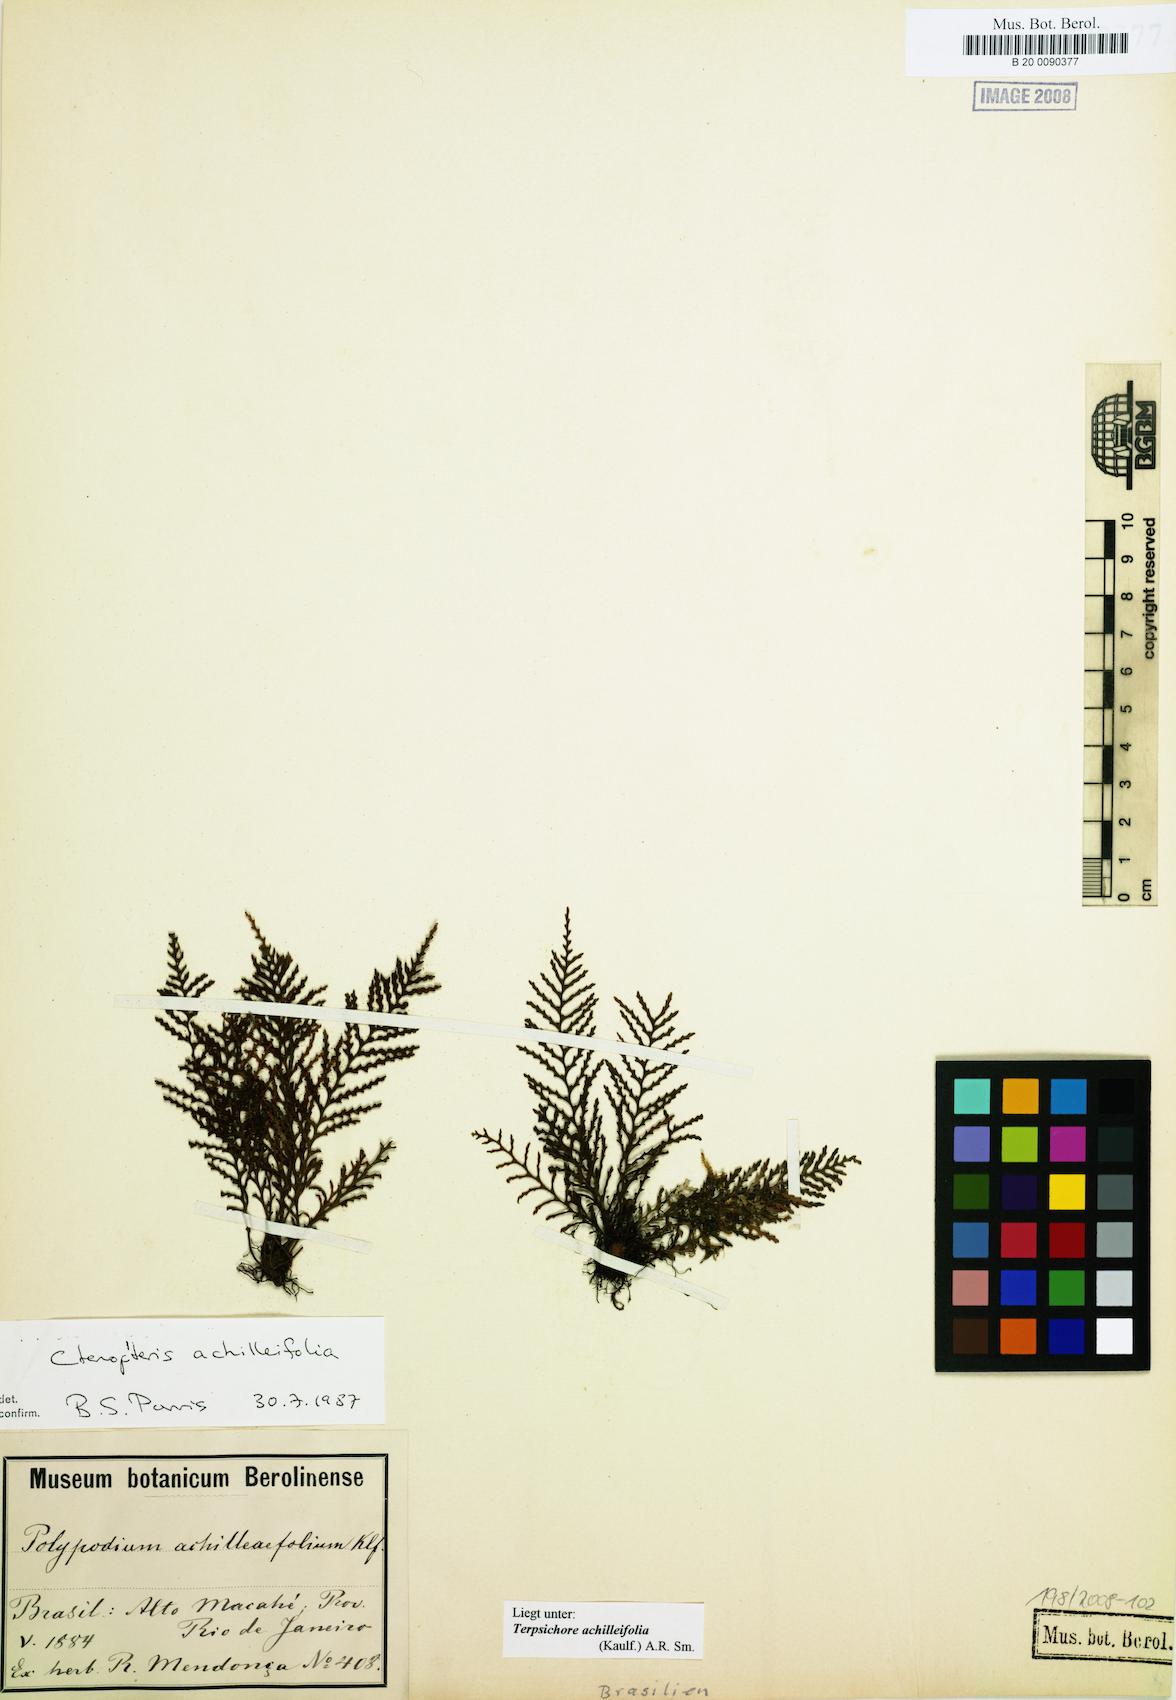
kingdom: Plantae
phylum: Tracheophyta
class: Polypodiopsida
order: Polypodiales
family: Polypodiaceae
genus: Moranopteris
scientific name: Moranopteris achilleifolia
